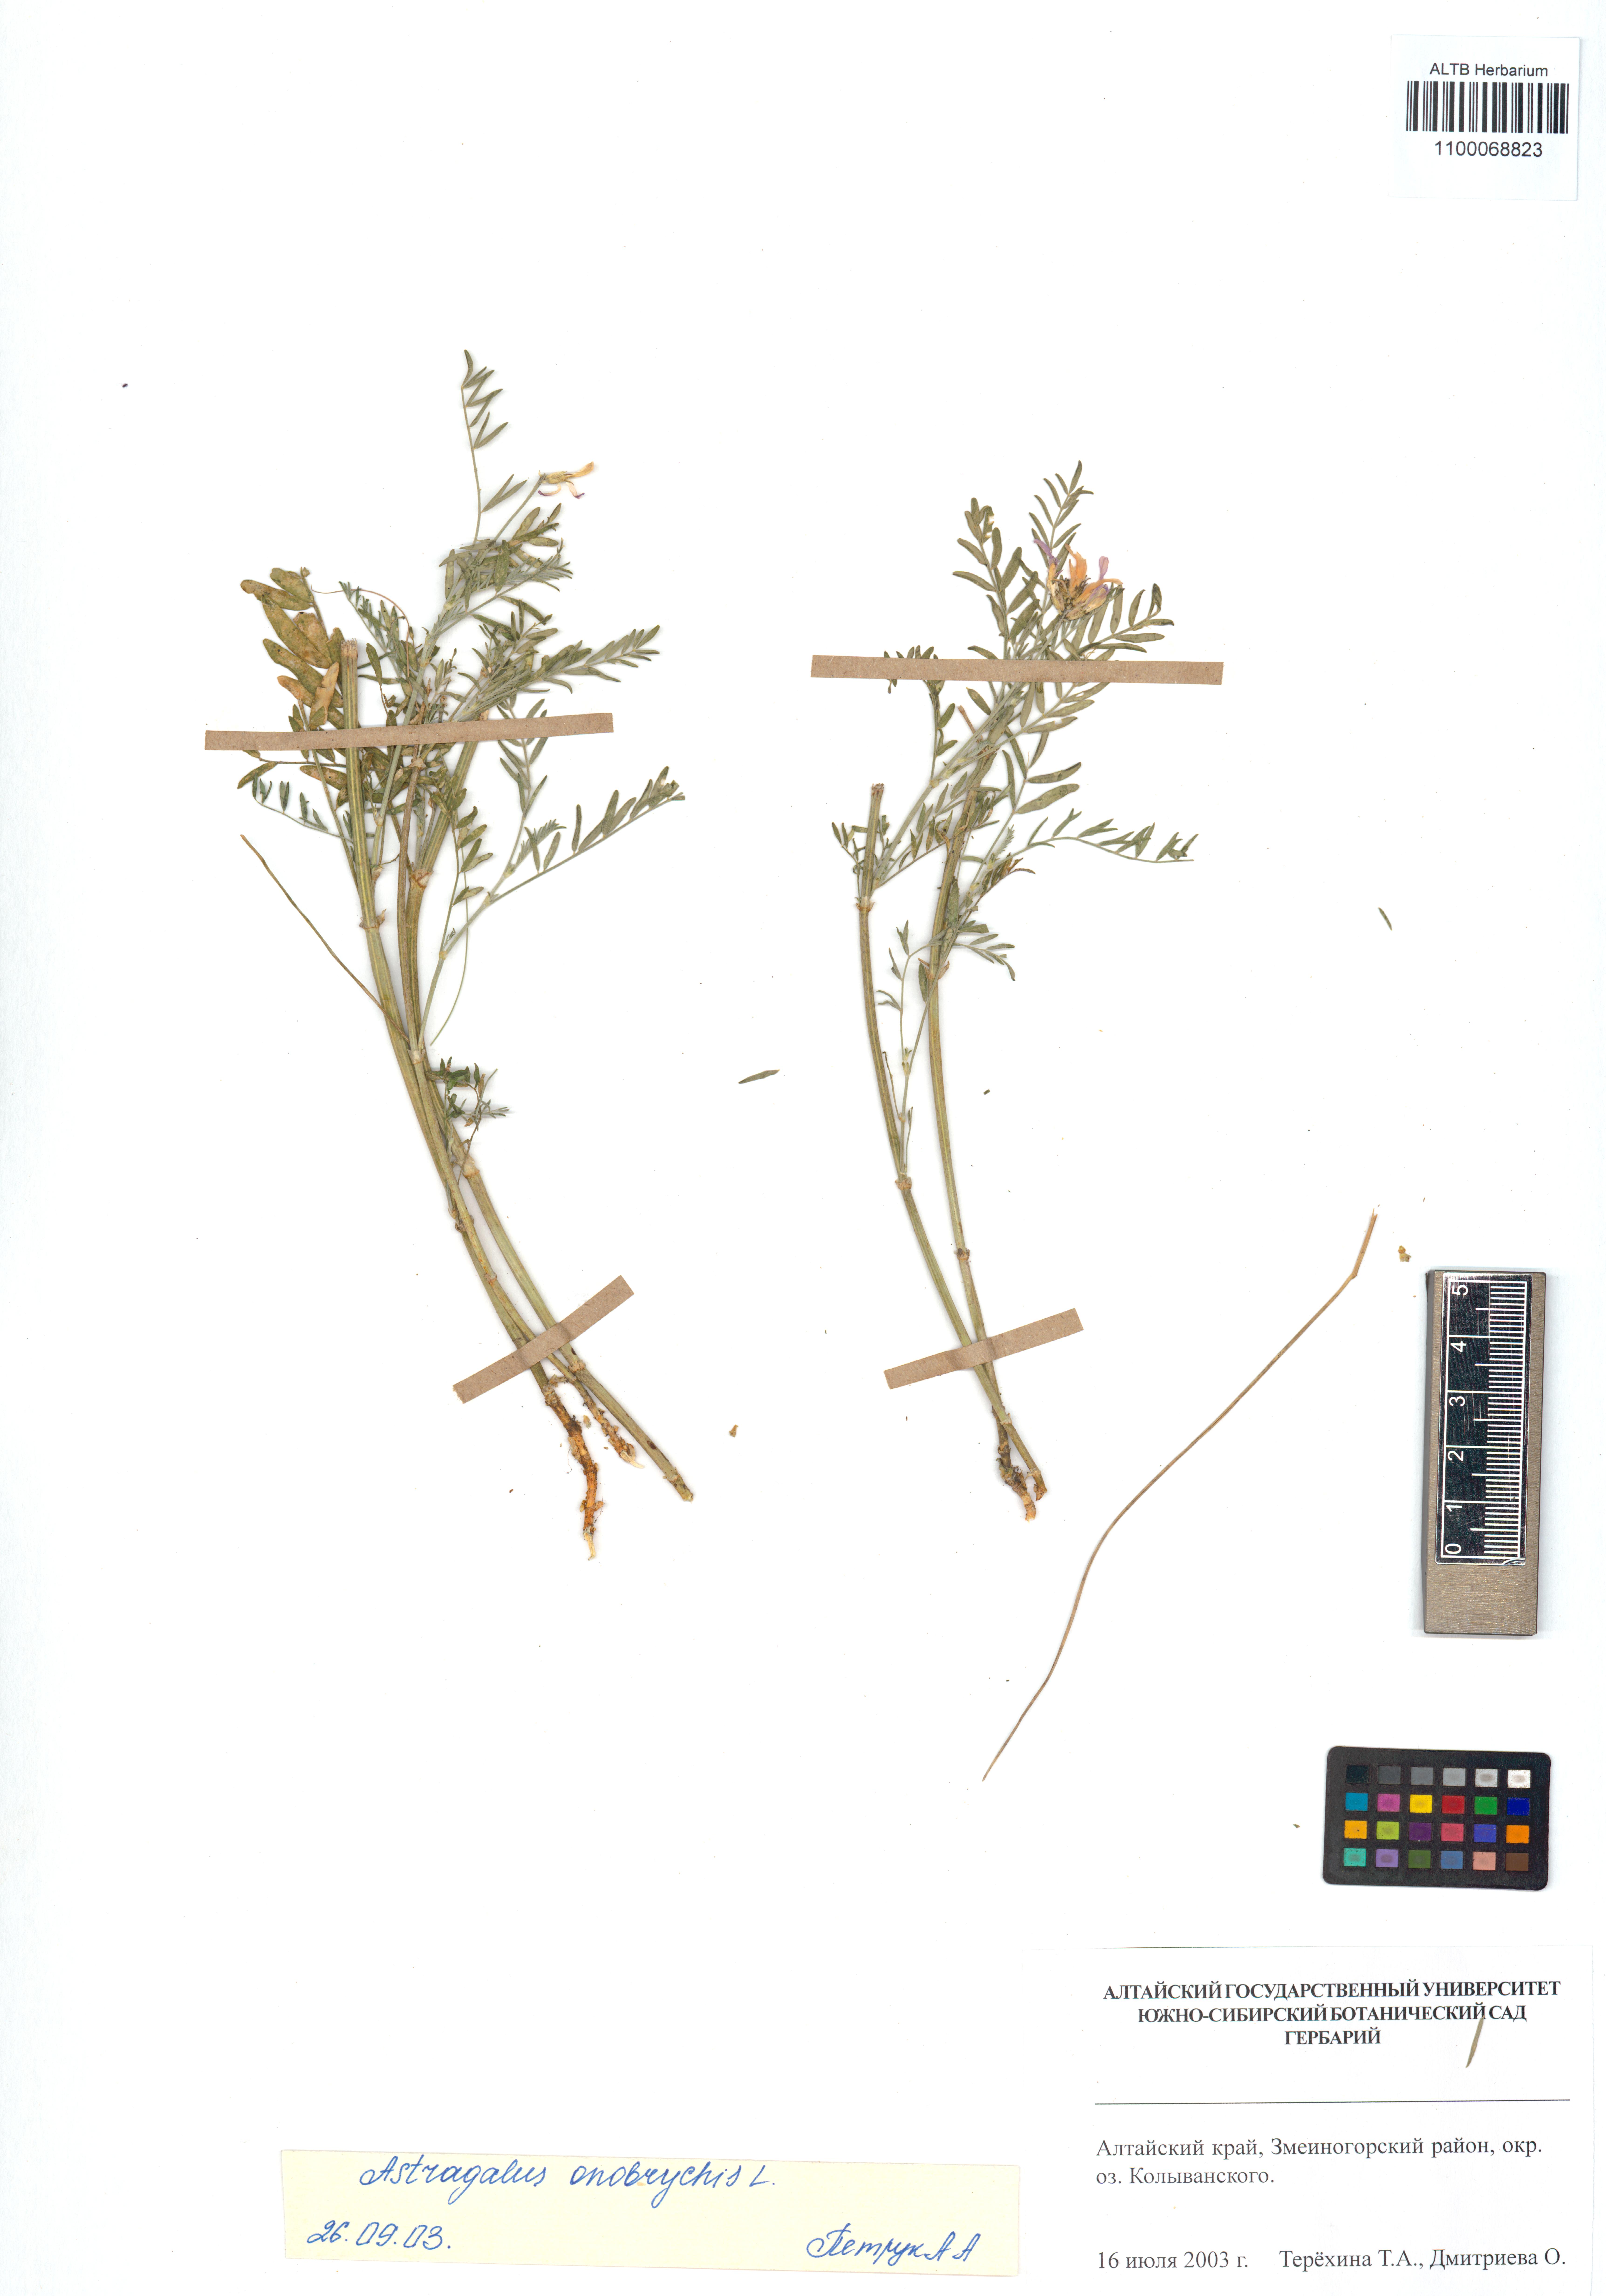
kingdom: Plantae
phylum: Tracheophyta
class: Magnoliopsida
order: Fabales
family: Fabaceae
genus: Astragalus
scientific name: Astragalus onobrychis
